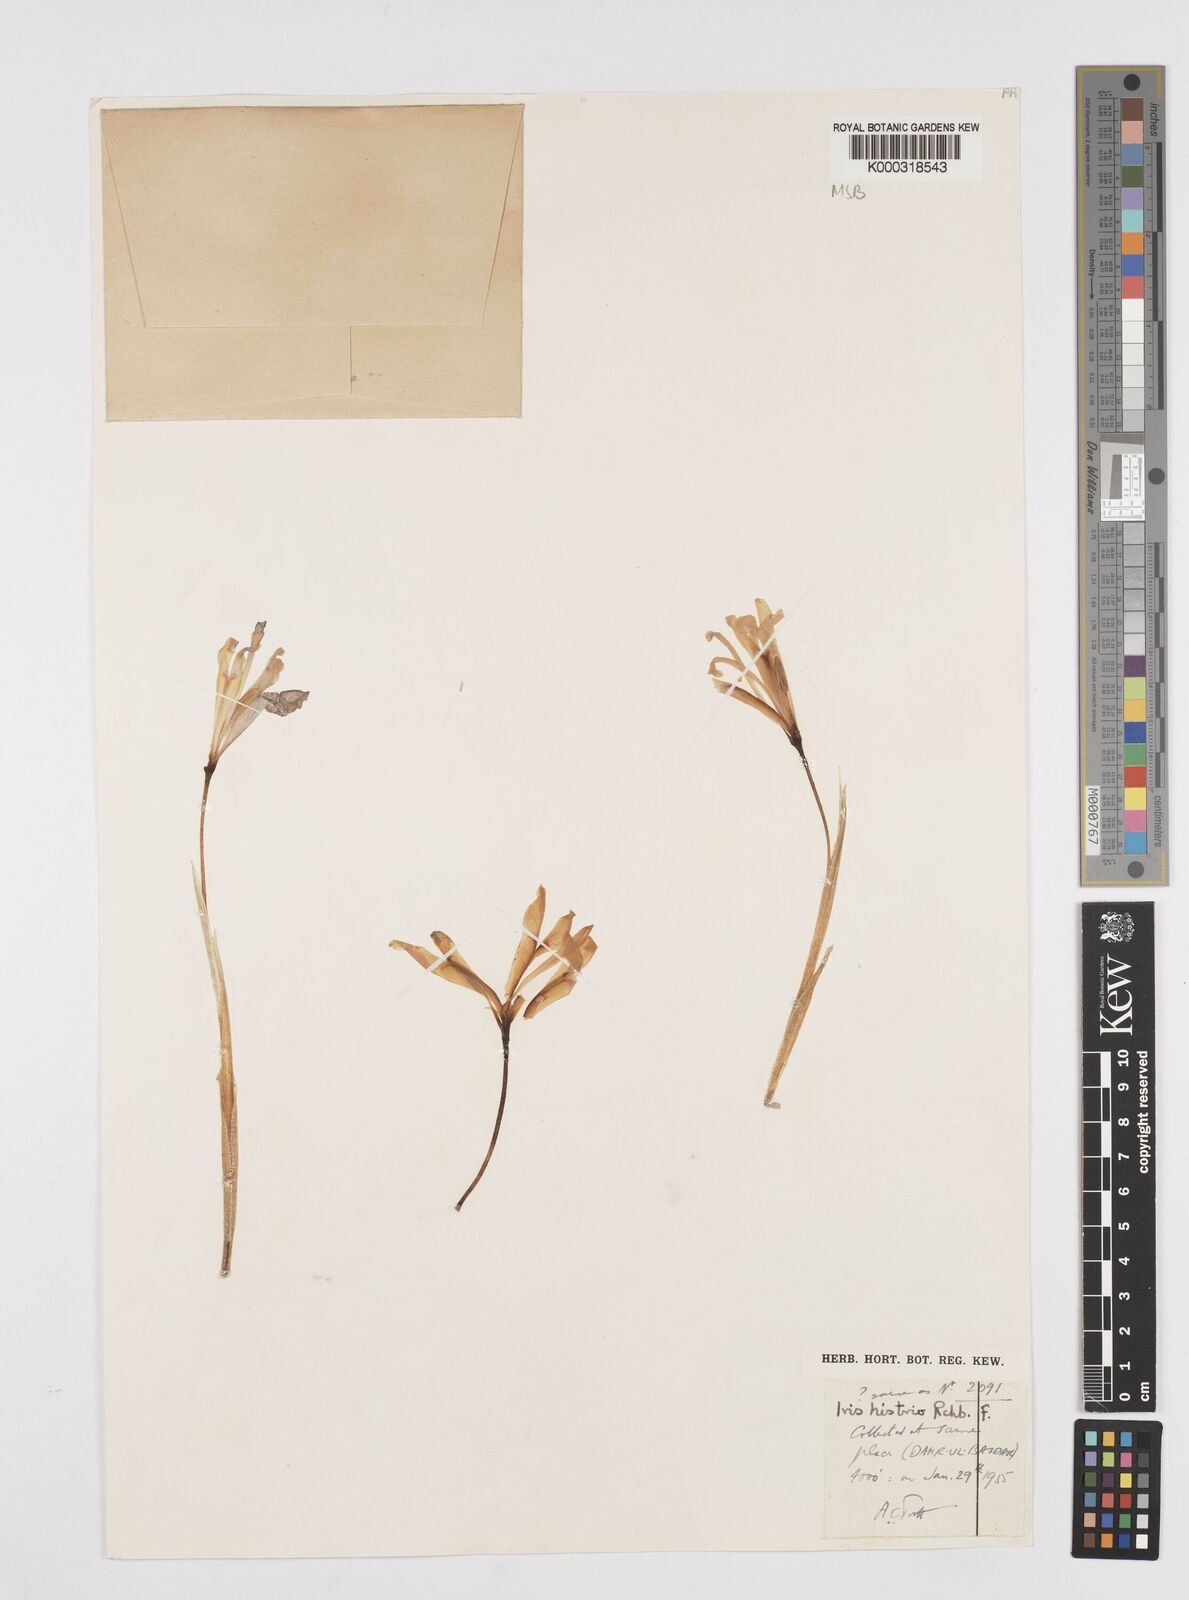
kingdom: Plantae
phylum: Tracheophyta
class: Liliopsida
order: Asparagales
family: Iridaceae
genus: Iris
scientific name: Iris histrio
